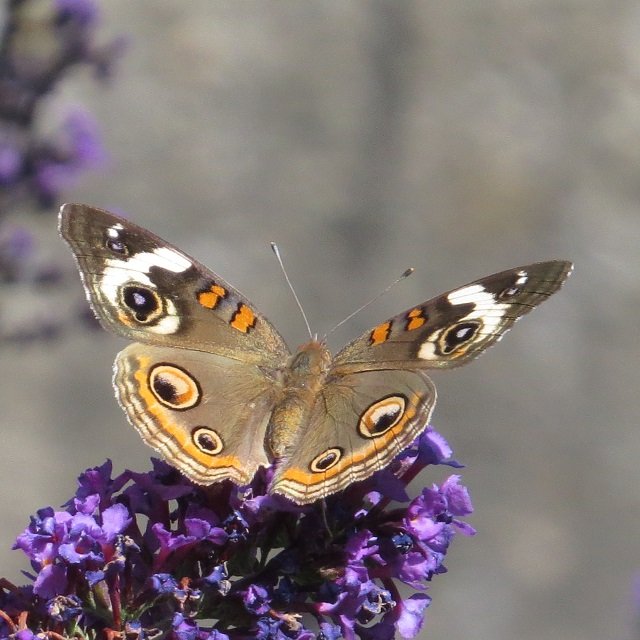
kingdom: Animalia
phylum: Arthropoda
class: Insecta
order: Lepidoptera
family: Nymphalidae
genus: Junonia
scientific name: Junonia coenia
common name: Common Buckeye
